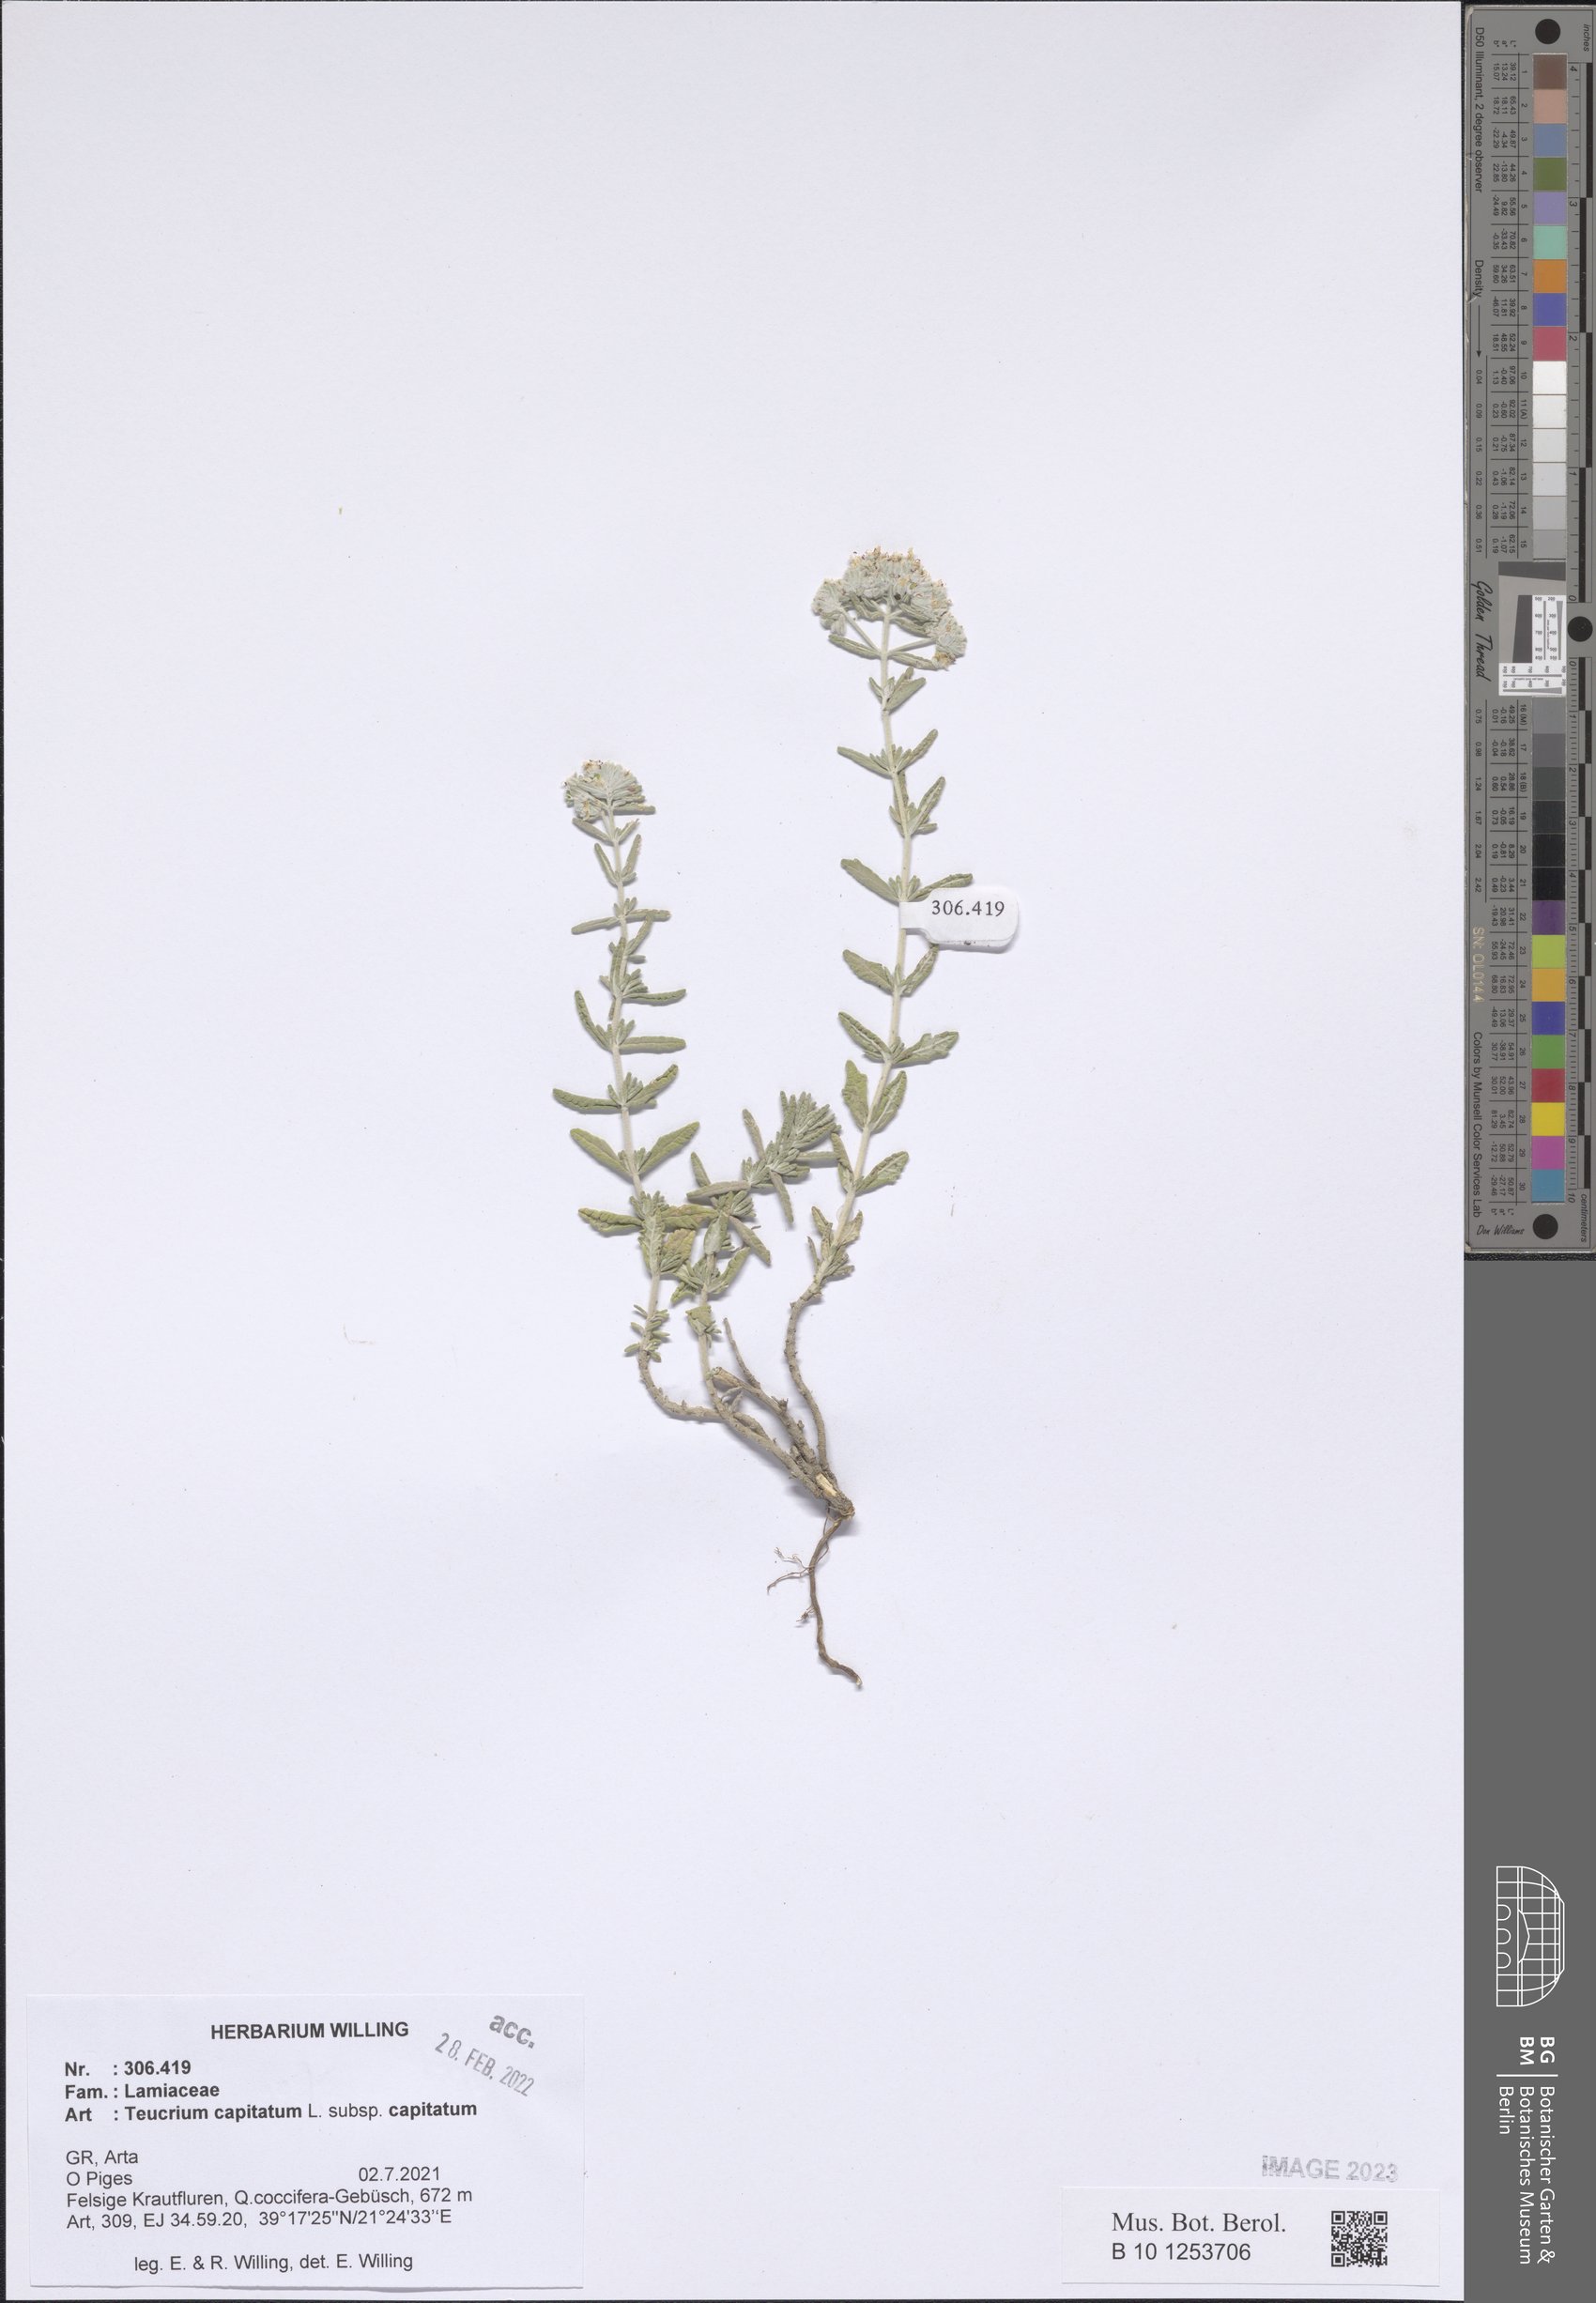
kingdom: Plantae
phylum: Tracheophyta
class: Magnoliopsida
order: Lamiales
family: Lamiaceae
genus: Teucrium
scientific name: Teucrium capitatum
